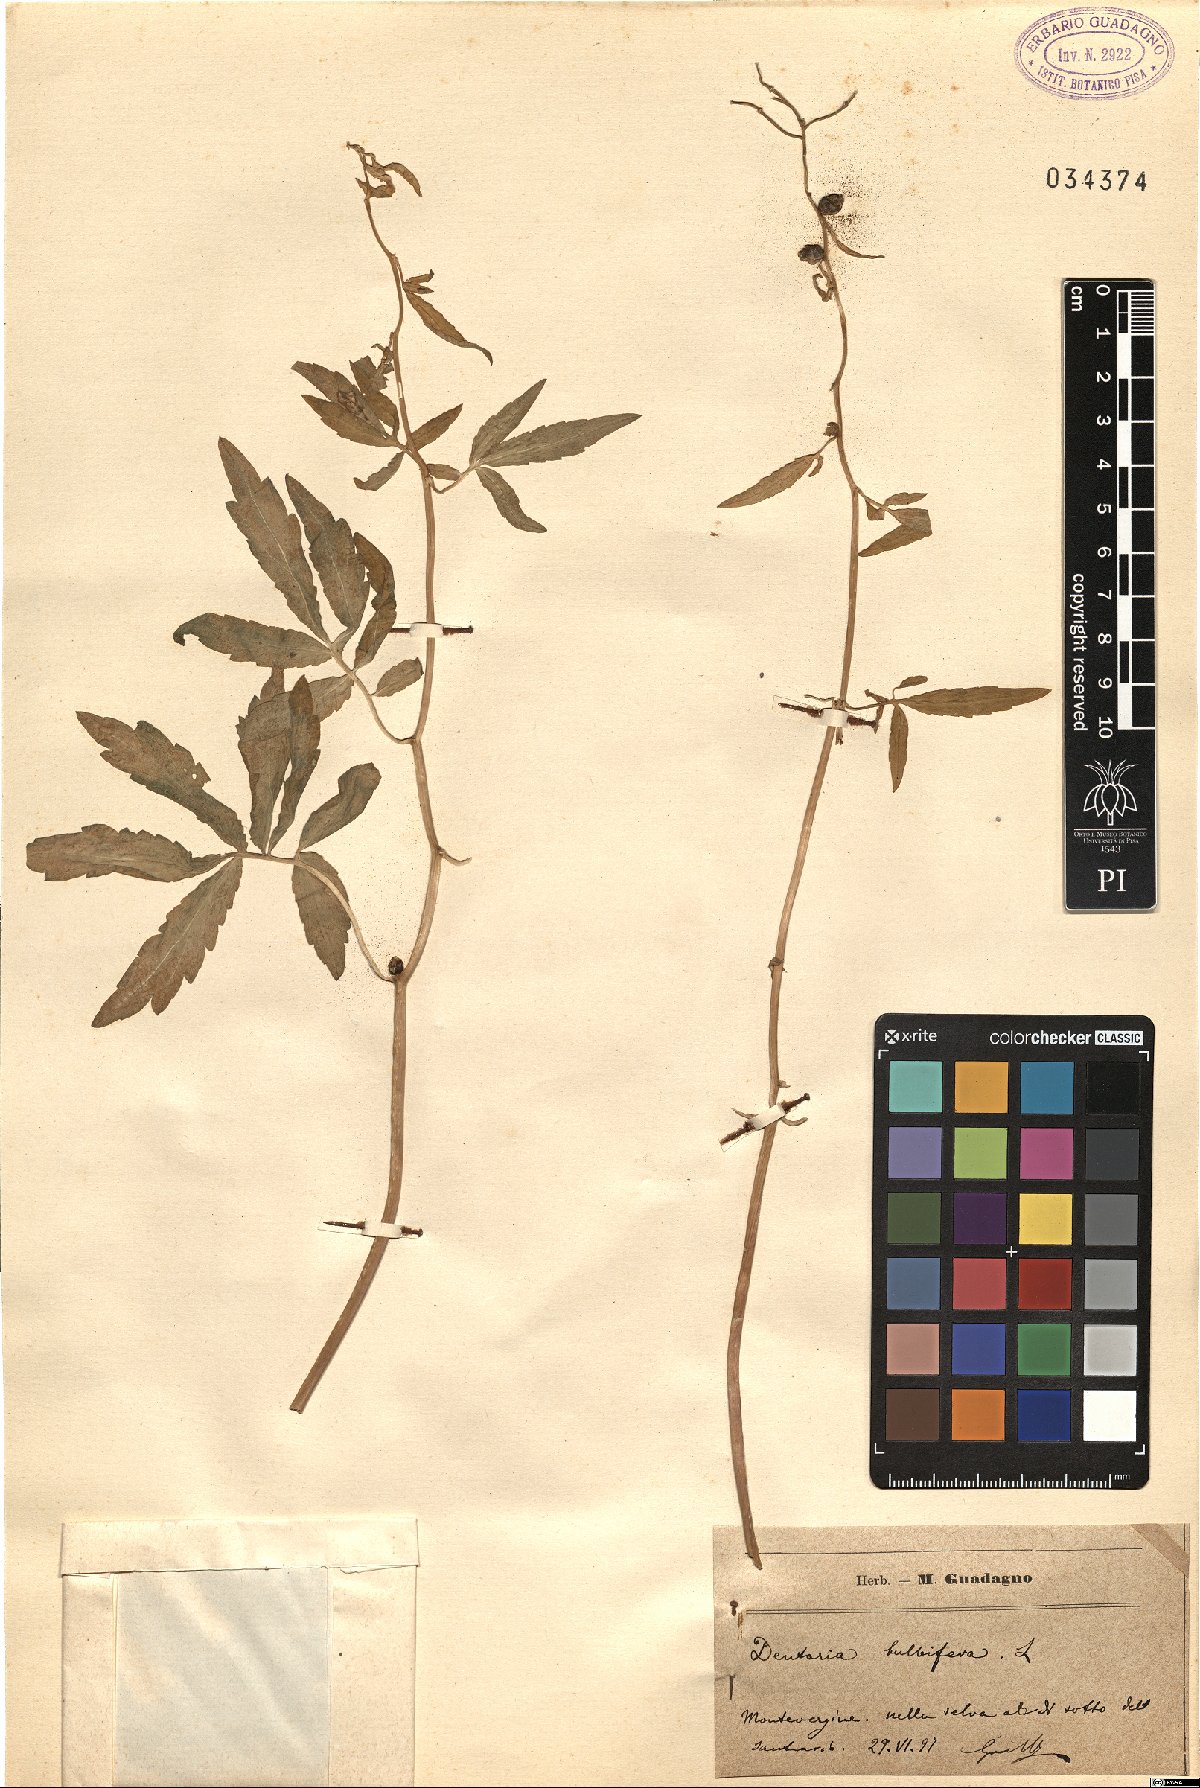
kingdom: Plantae
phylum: Tracheophyta
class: Magnoliopsida
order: Brassicales
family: Brassicaceae
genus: Cardamine
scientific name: Cardamine bulbifera
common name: Coralroot bittercress
